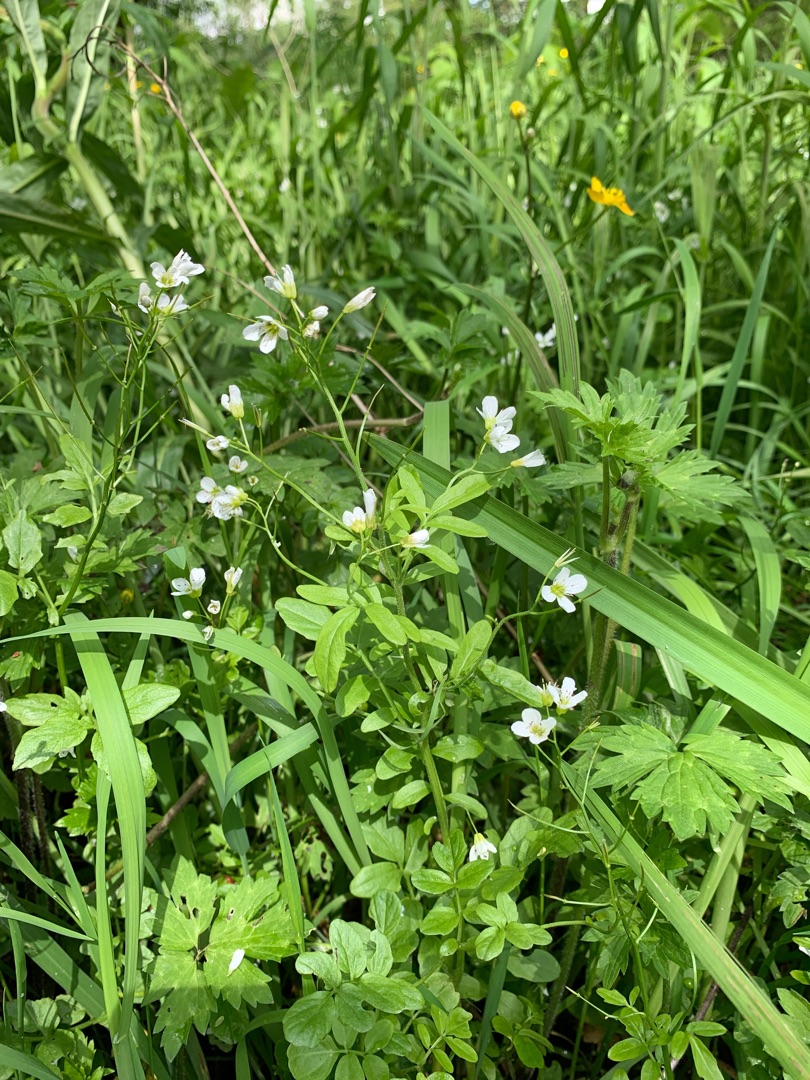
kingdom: Plantae
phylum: Tracheophyta
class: Magnoliopsida
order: Brassicales
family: Brassicaceae
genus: Cardamine
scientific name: Cardamine amara
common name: Vandkarse
